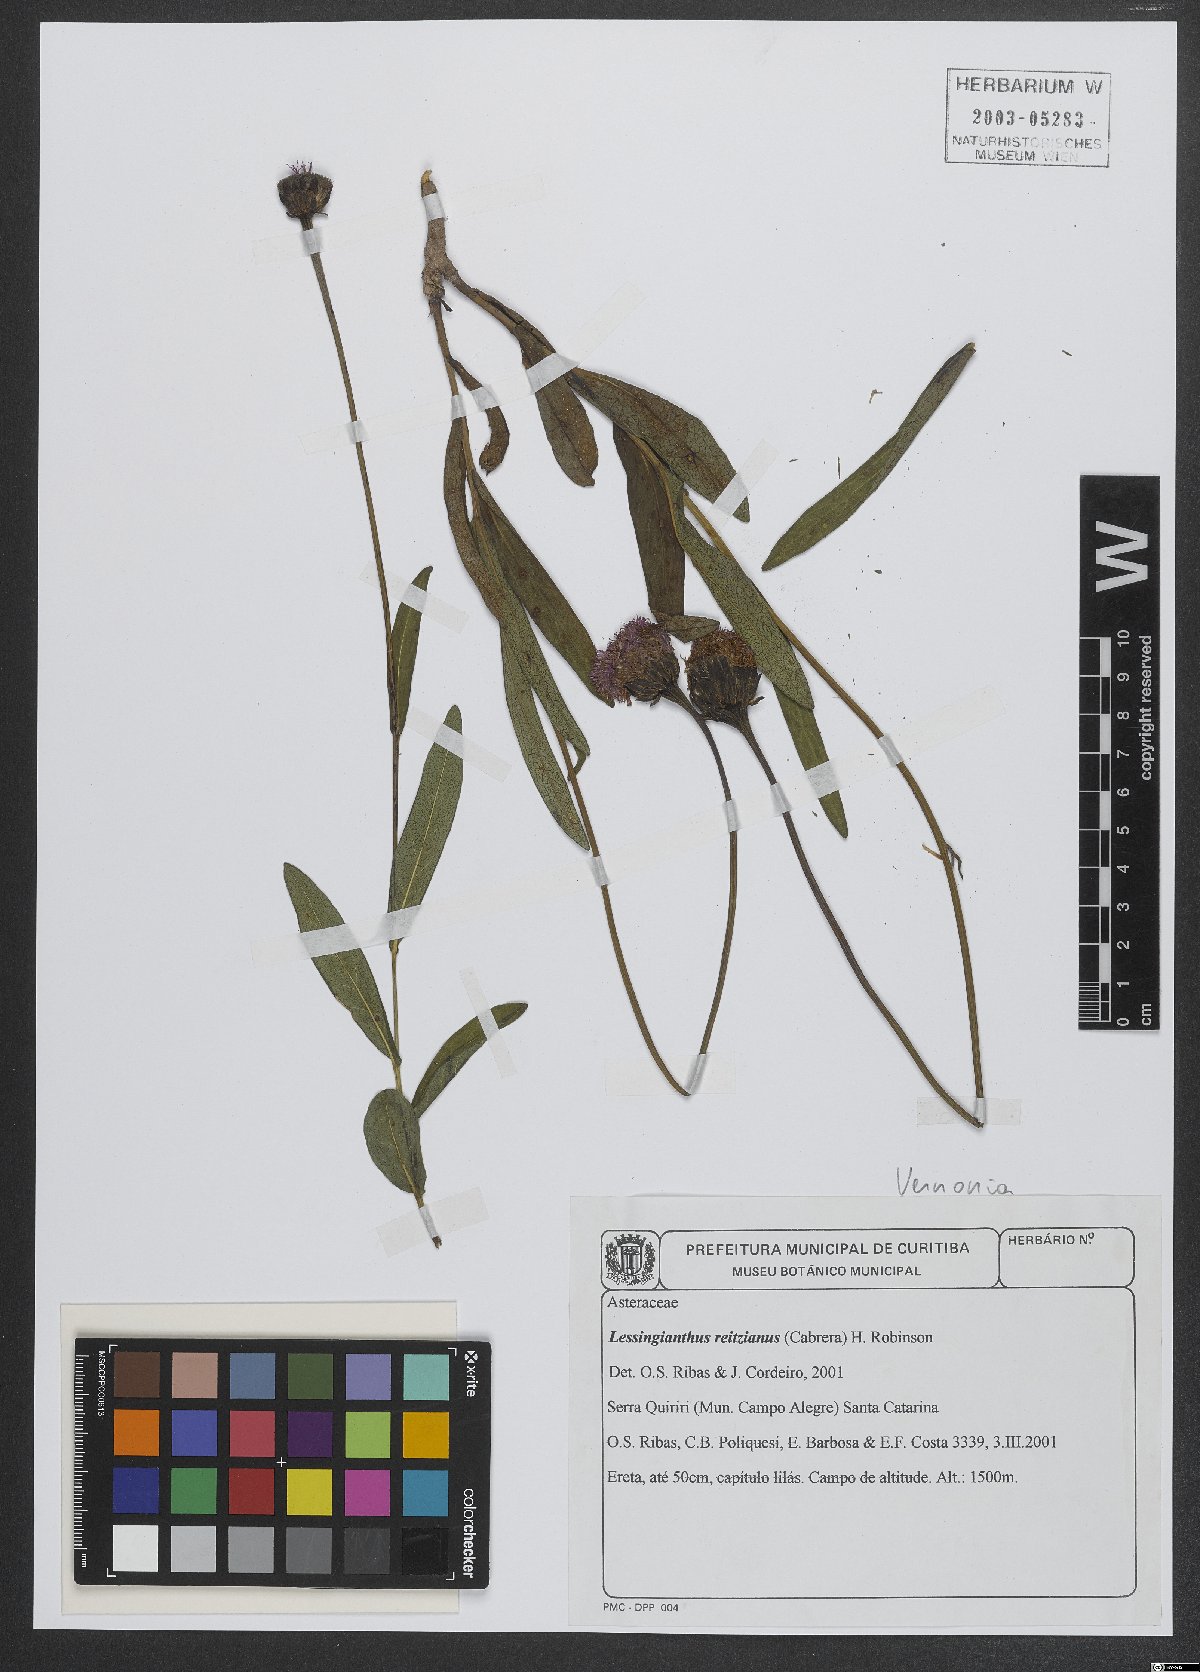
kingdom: Plantae
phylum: Tracheophyta
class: Magnoliopsida
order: Asterales
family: Asteraceae
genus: Lessingianthus
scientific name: Lessingianthus reitzianus
